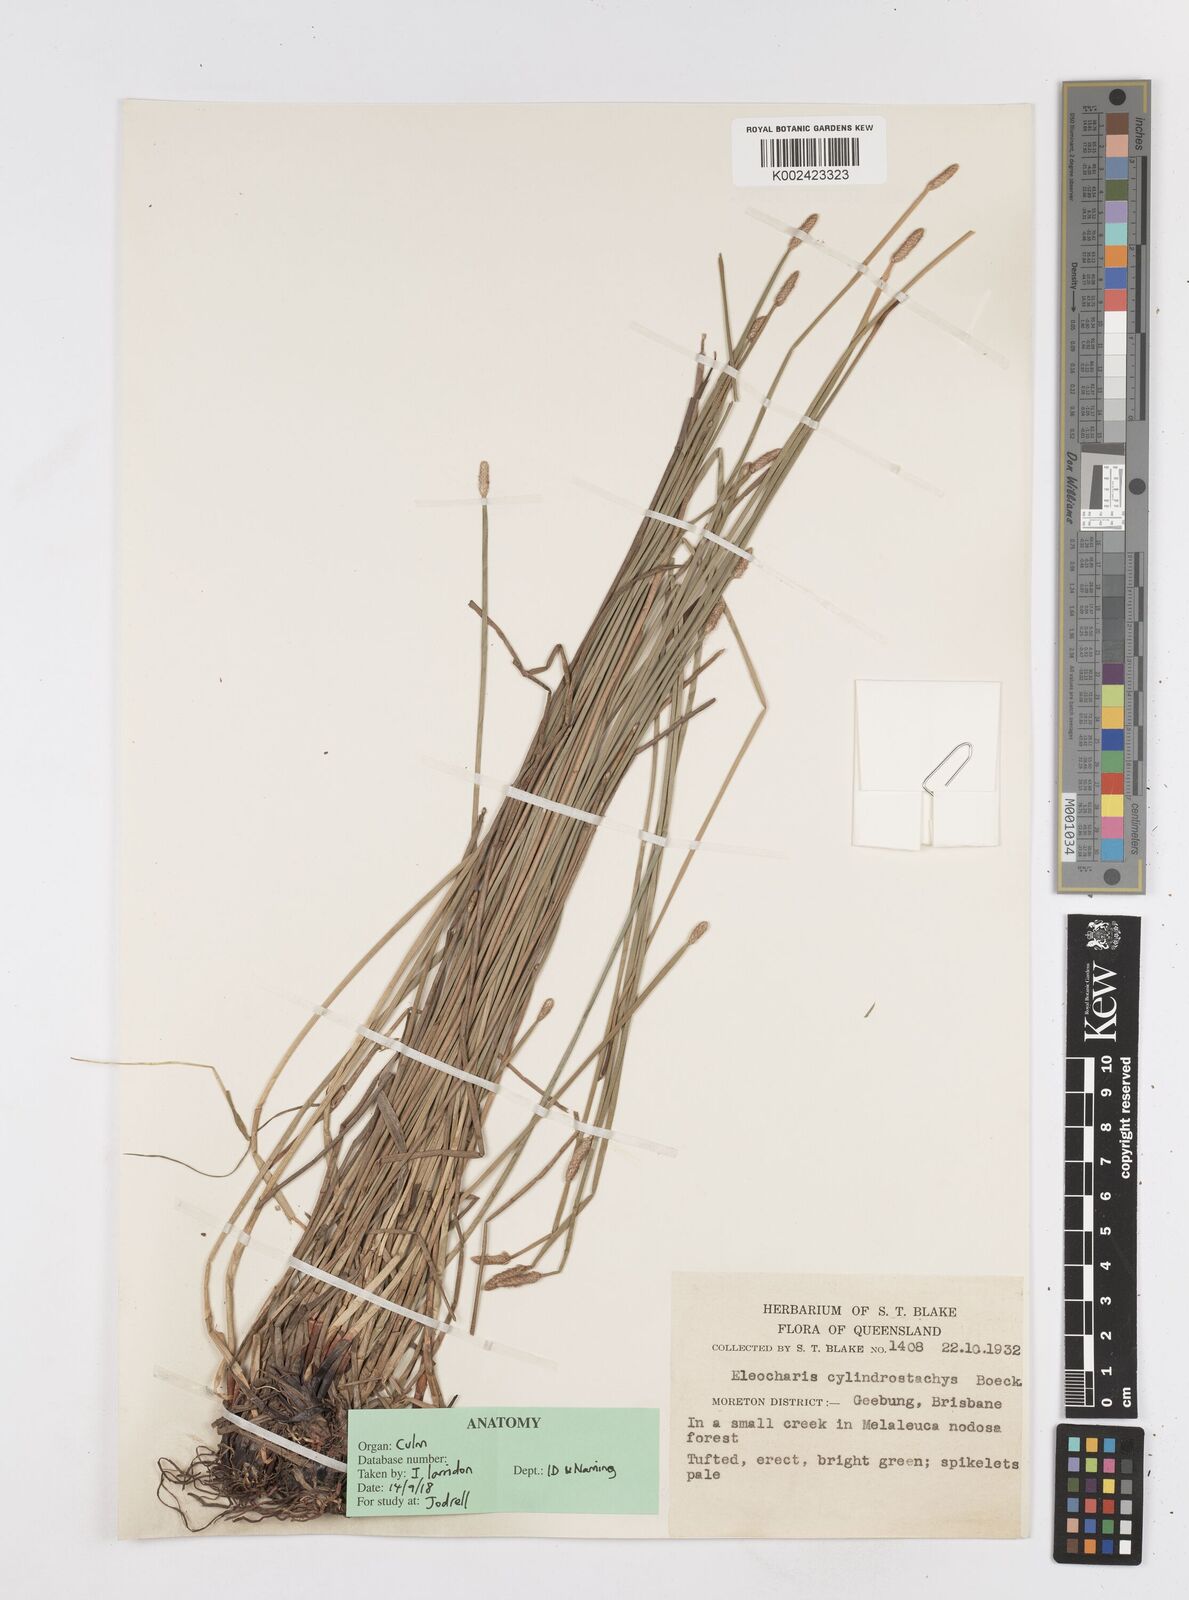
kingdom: Plantae
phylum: Tracheophyta
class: Liliopsida
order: Poales
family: Cyperaceae
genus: Eleocharis
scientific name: Eleocharis cylindrostachys
